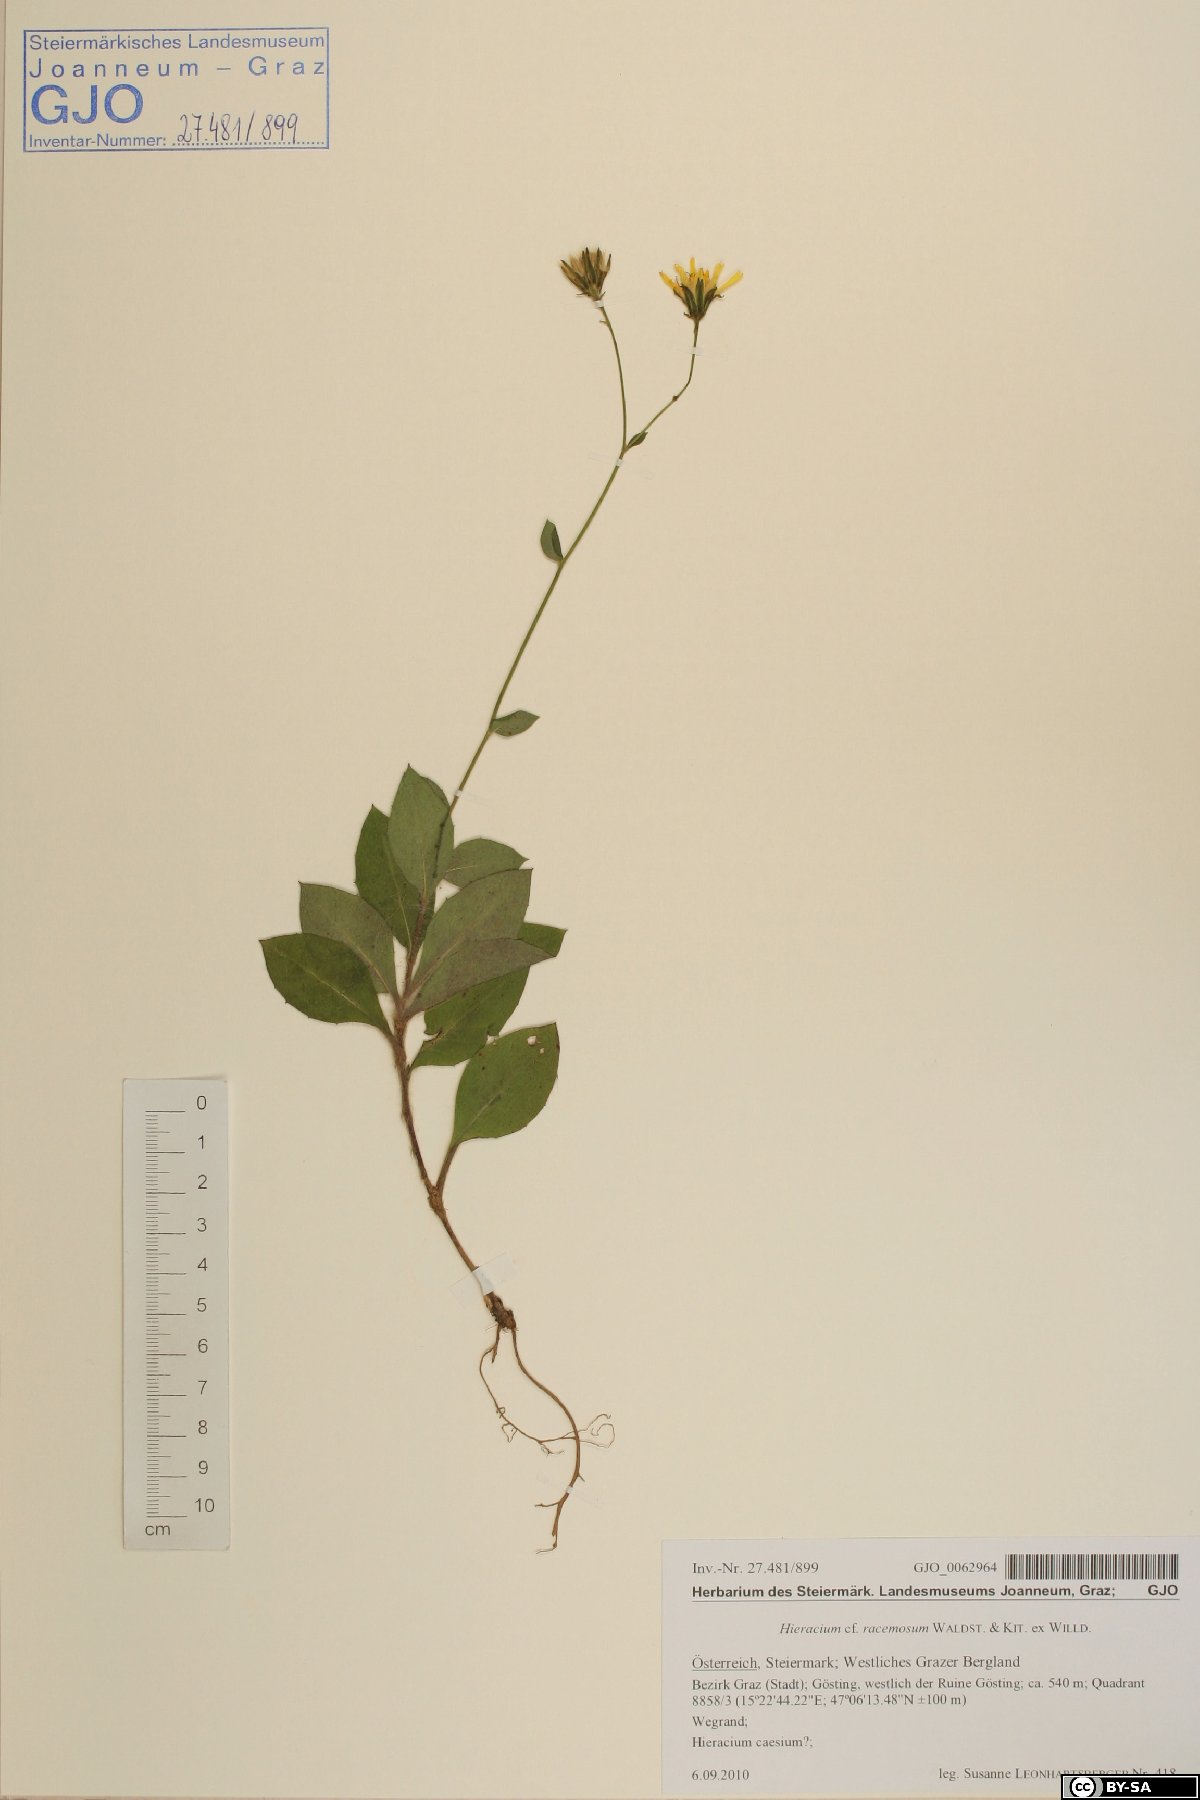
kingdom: Plantae
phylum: Tracheophyta
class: Magnoliopsida
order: Asterales
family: Asteraceae
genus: Hieracium
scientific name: Hieracium racemosum
